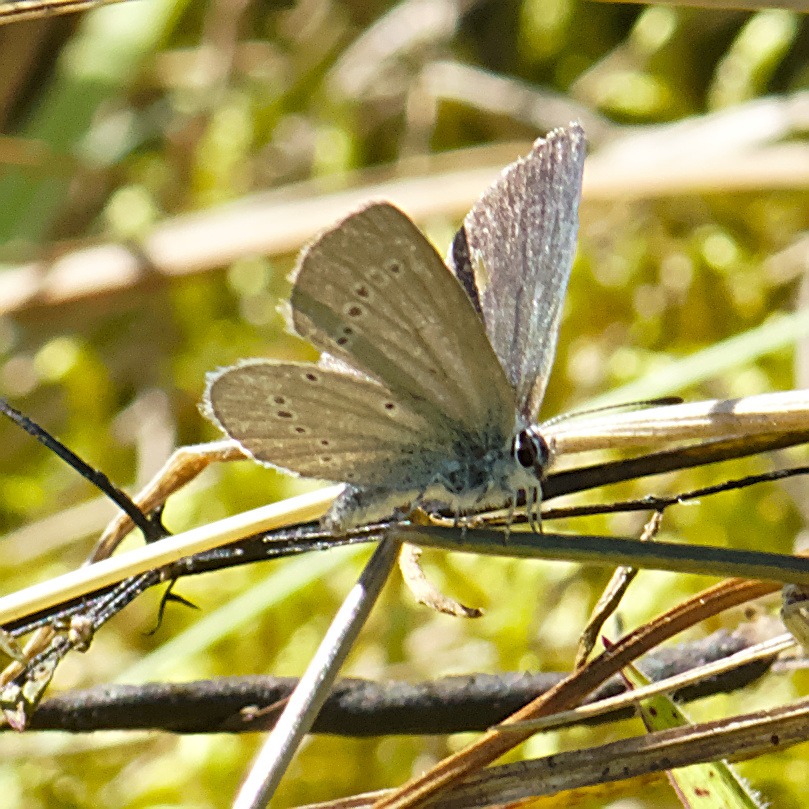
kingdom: Animalia
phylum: Arthropoda
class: Insecta
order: Lepidoptera
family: Lycaenidae
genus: Cupido
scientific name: Cupido minimus
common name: Dværgblåfugl
